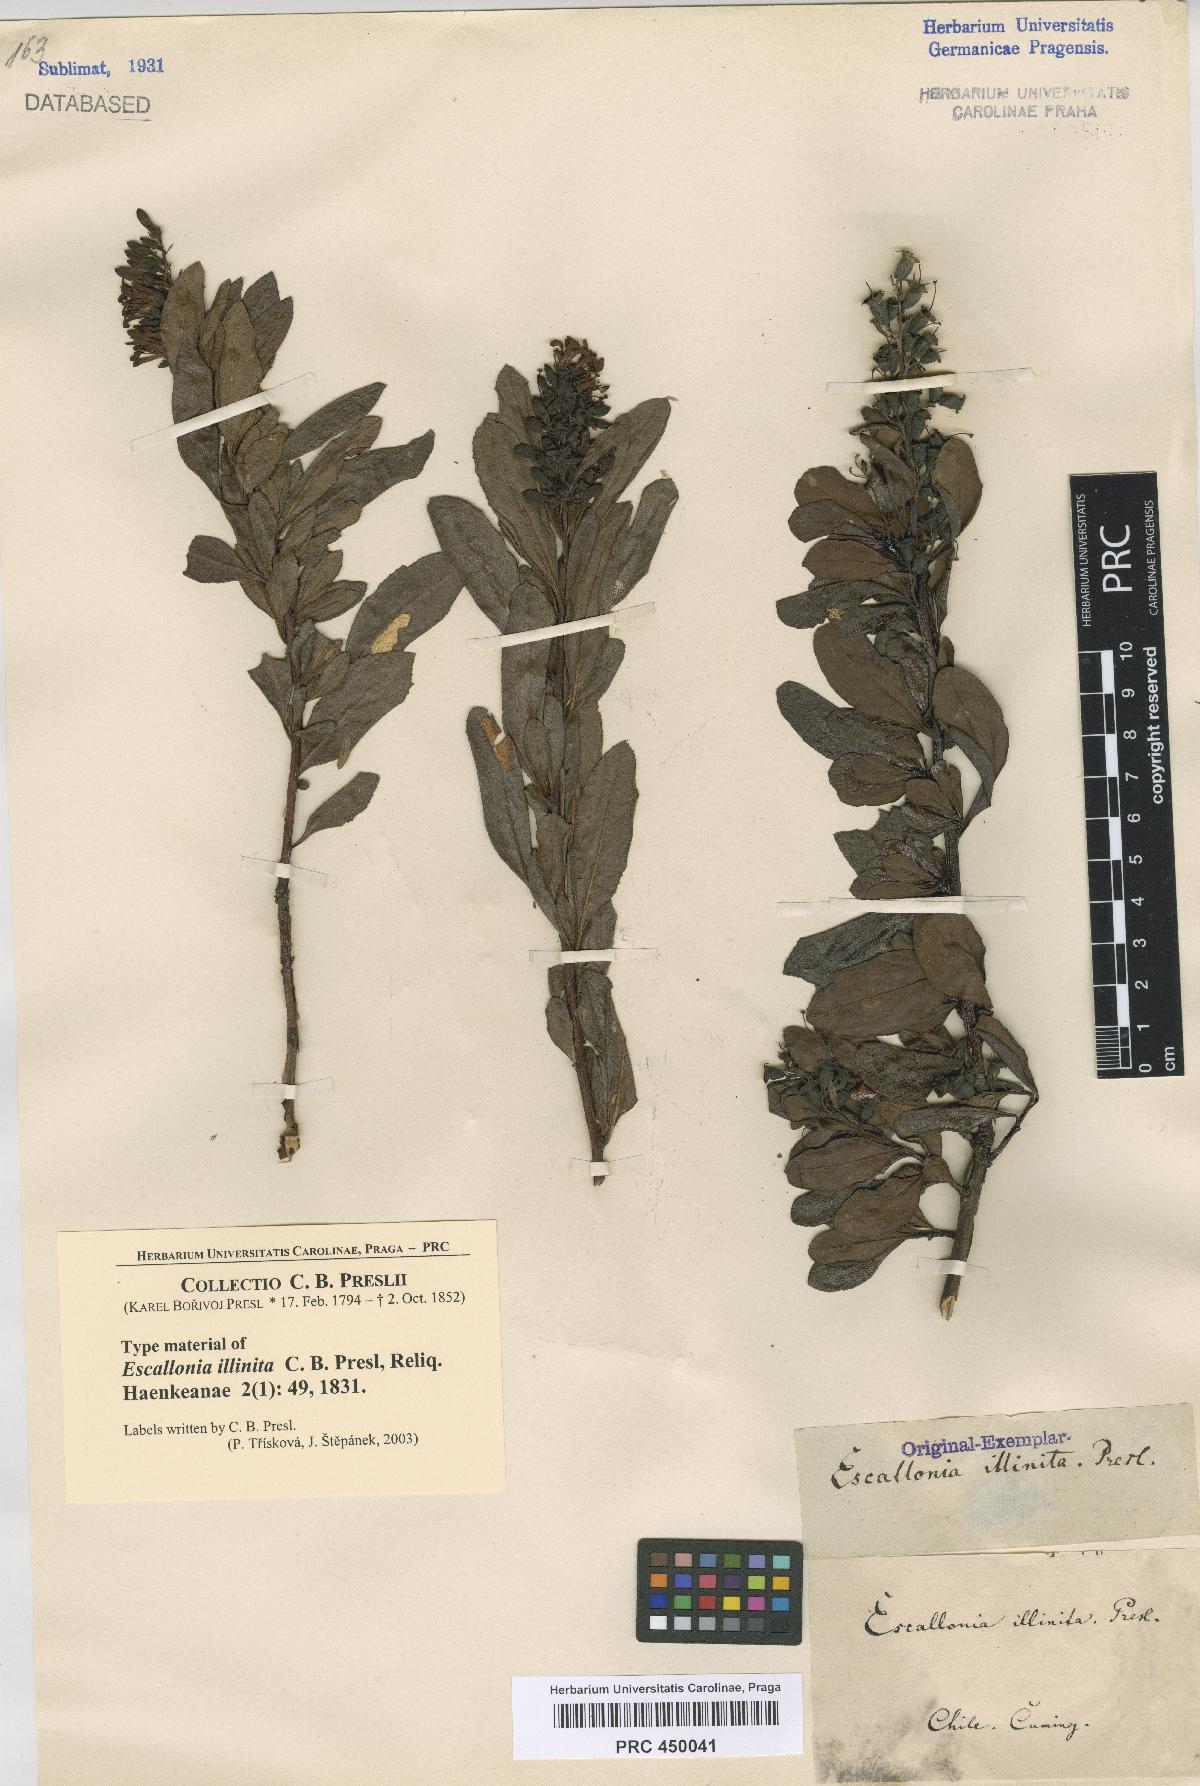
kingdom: Plantae
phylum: Tracheophyta
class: Magnoliopsida
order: Escalloniales
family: Escalloniaceae
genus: Escallonia
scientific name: Escallonia illinita
